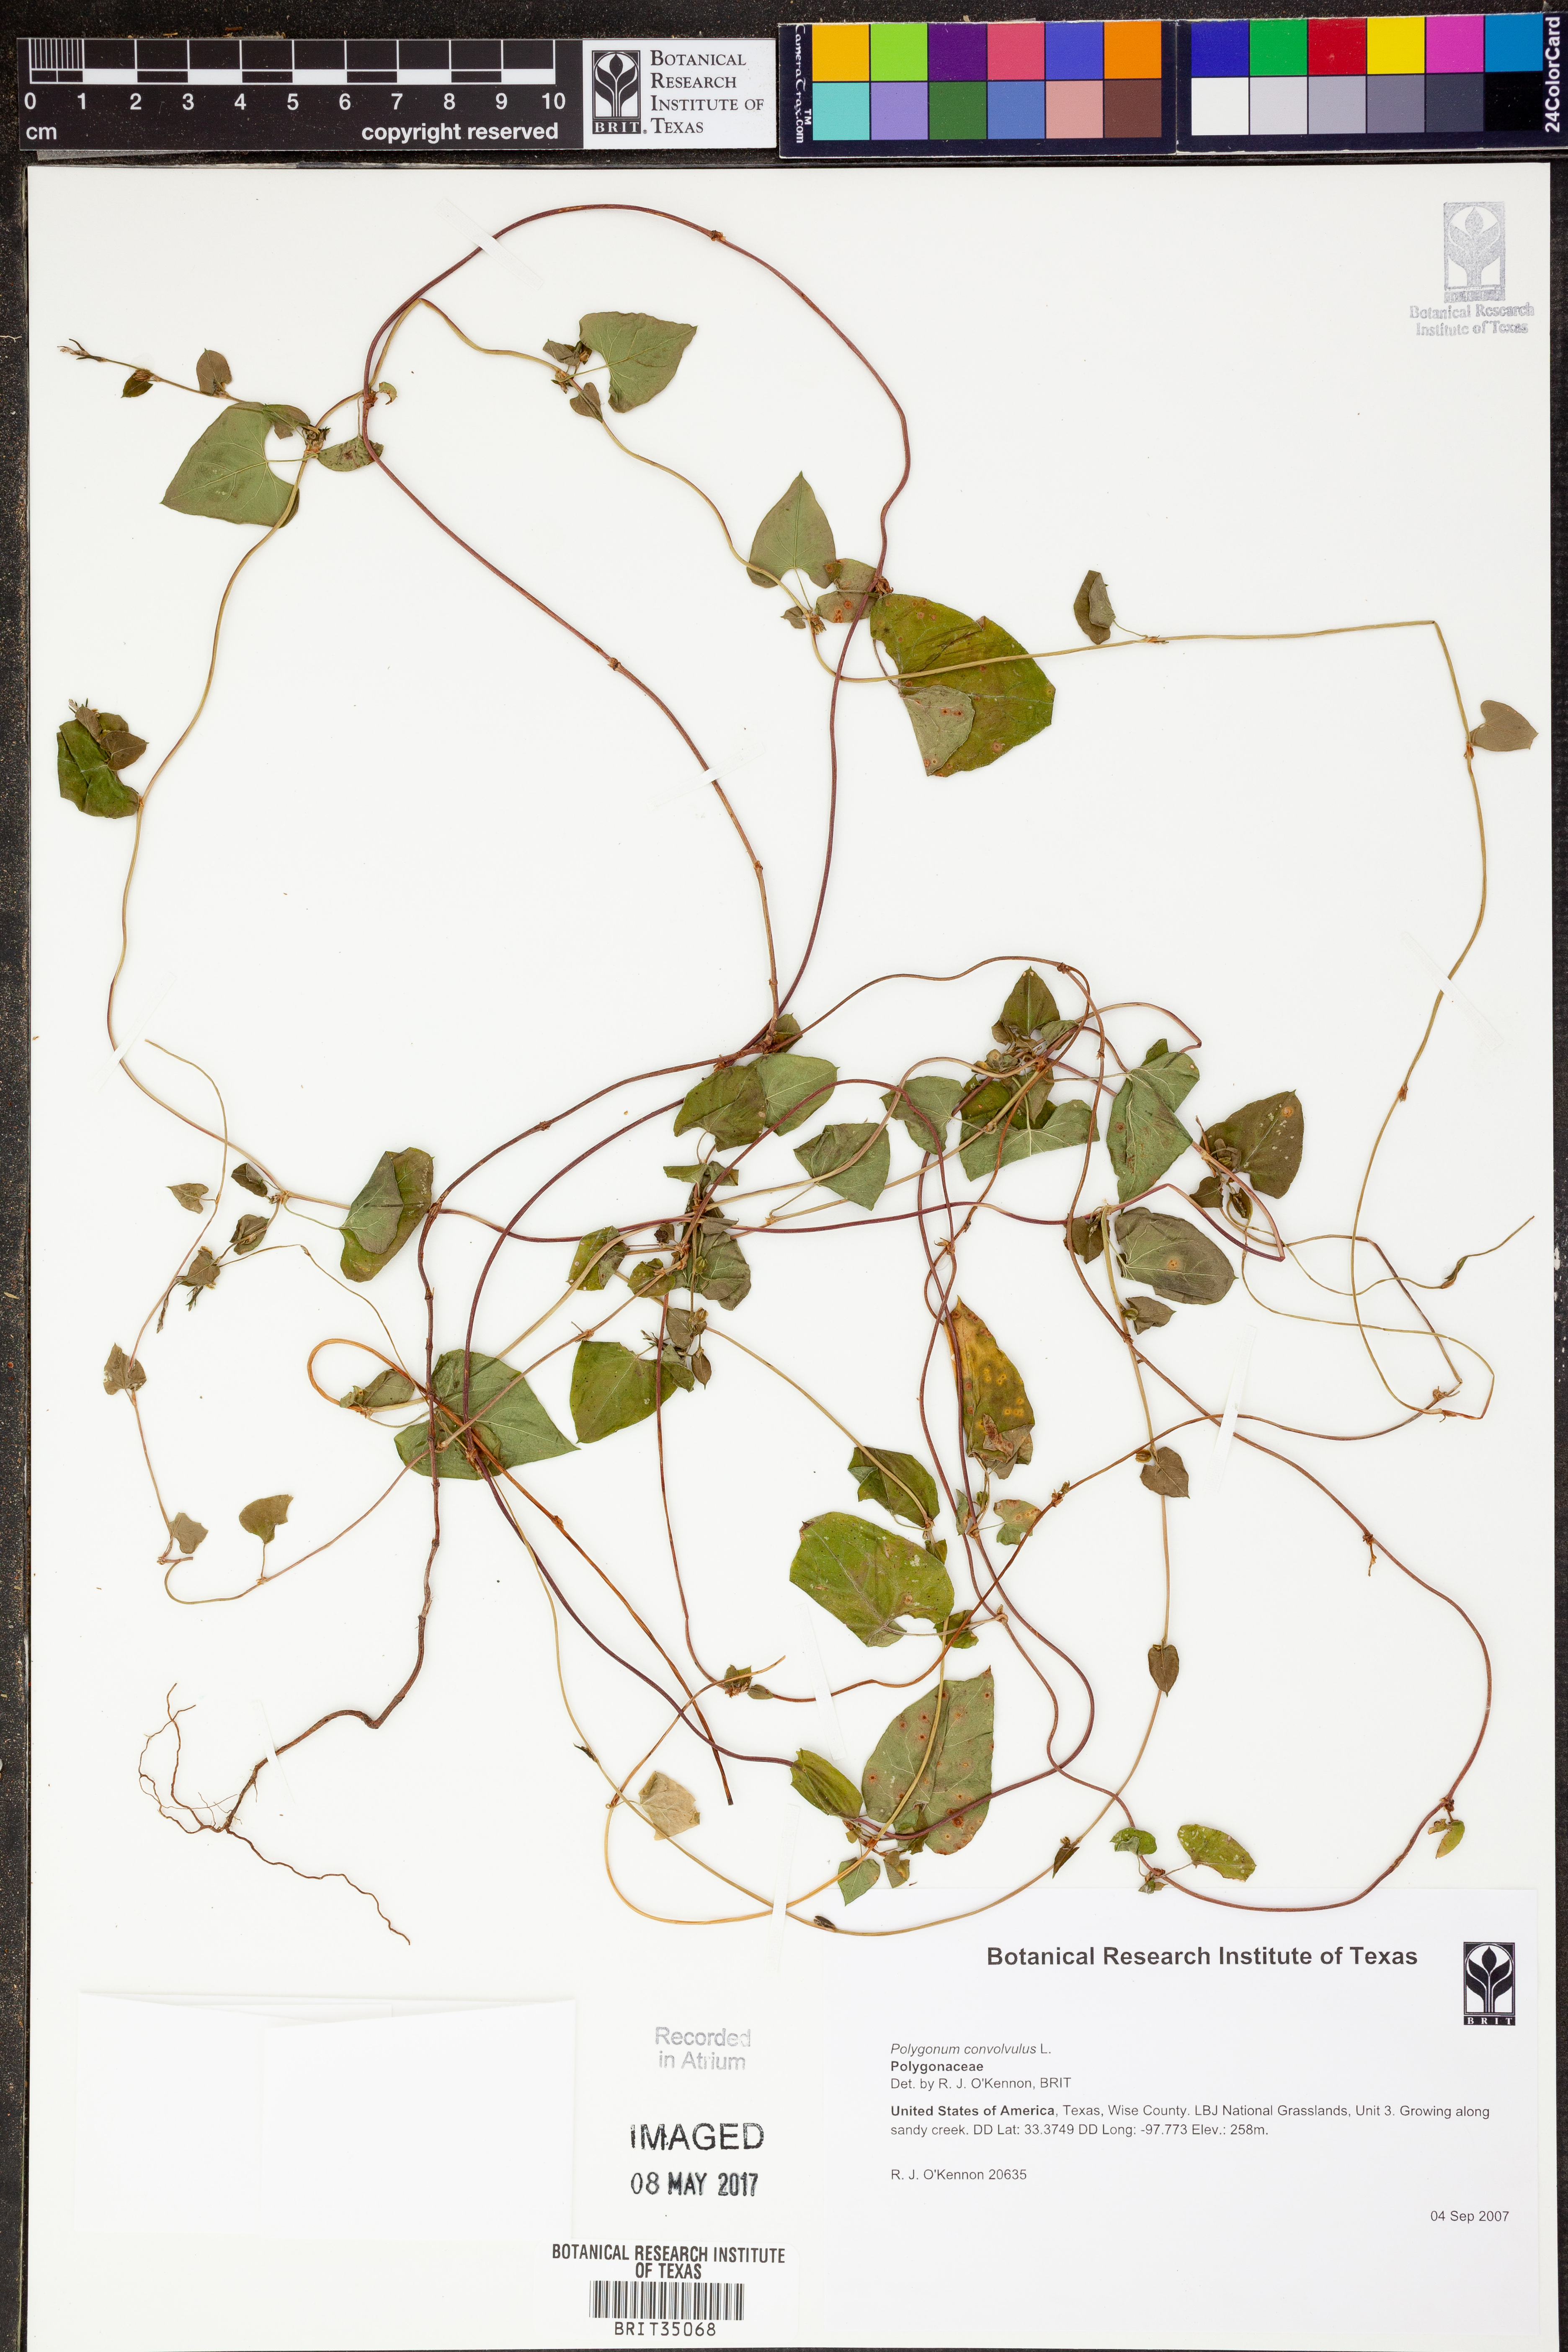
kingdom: Plantae
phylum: Tracheophyta
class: Magnoliopsida
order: Caryophyllales
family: Polygonaceae
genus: Fallopia
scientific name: Fallopia convolvulus
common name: Black bindweed
